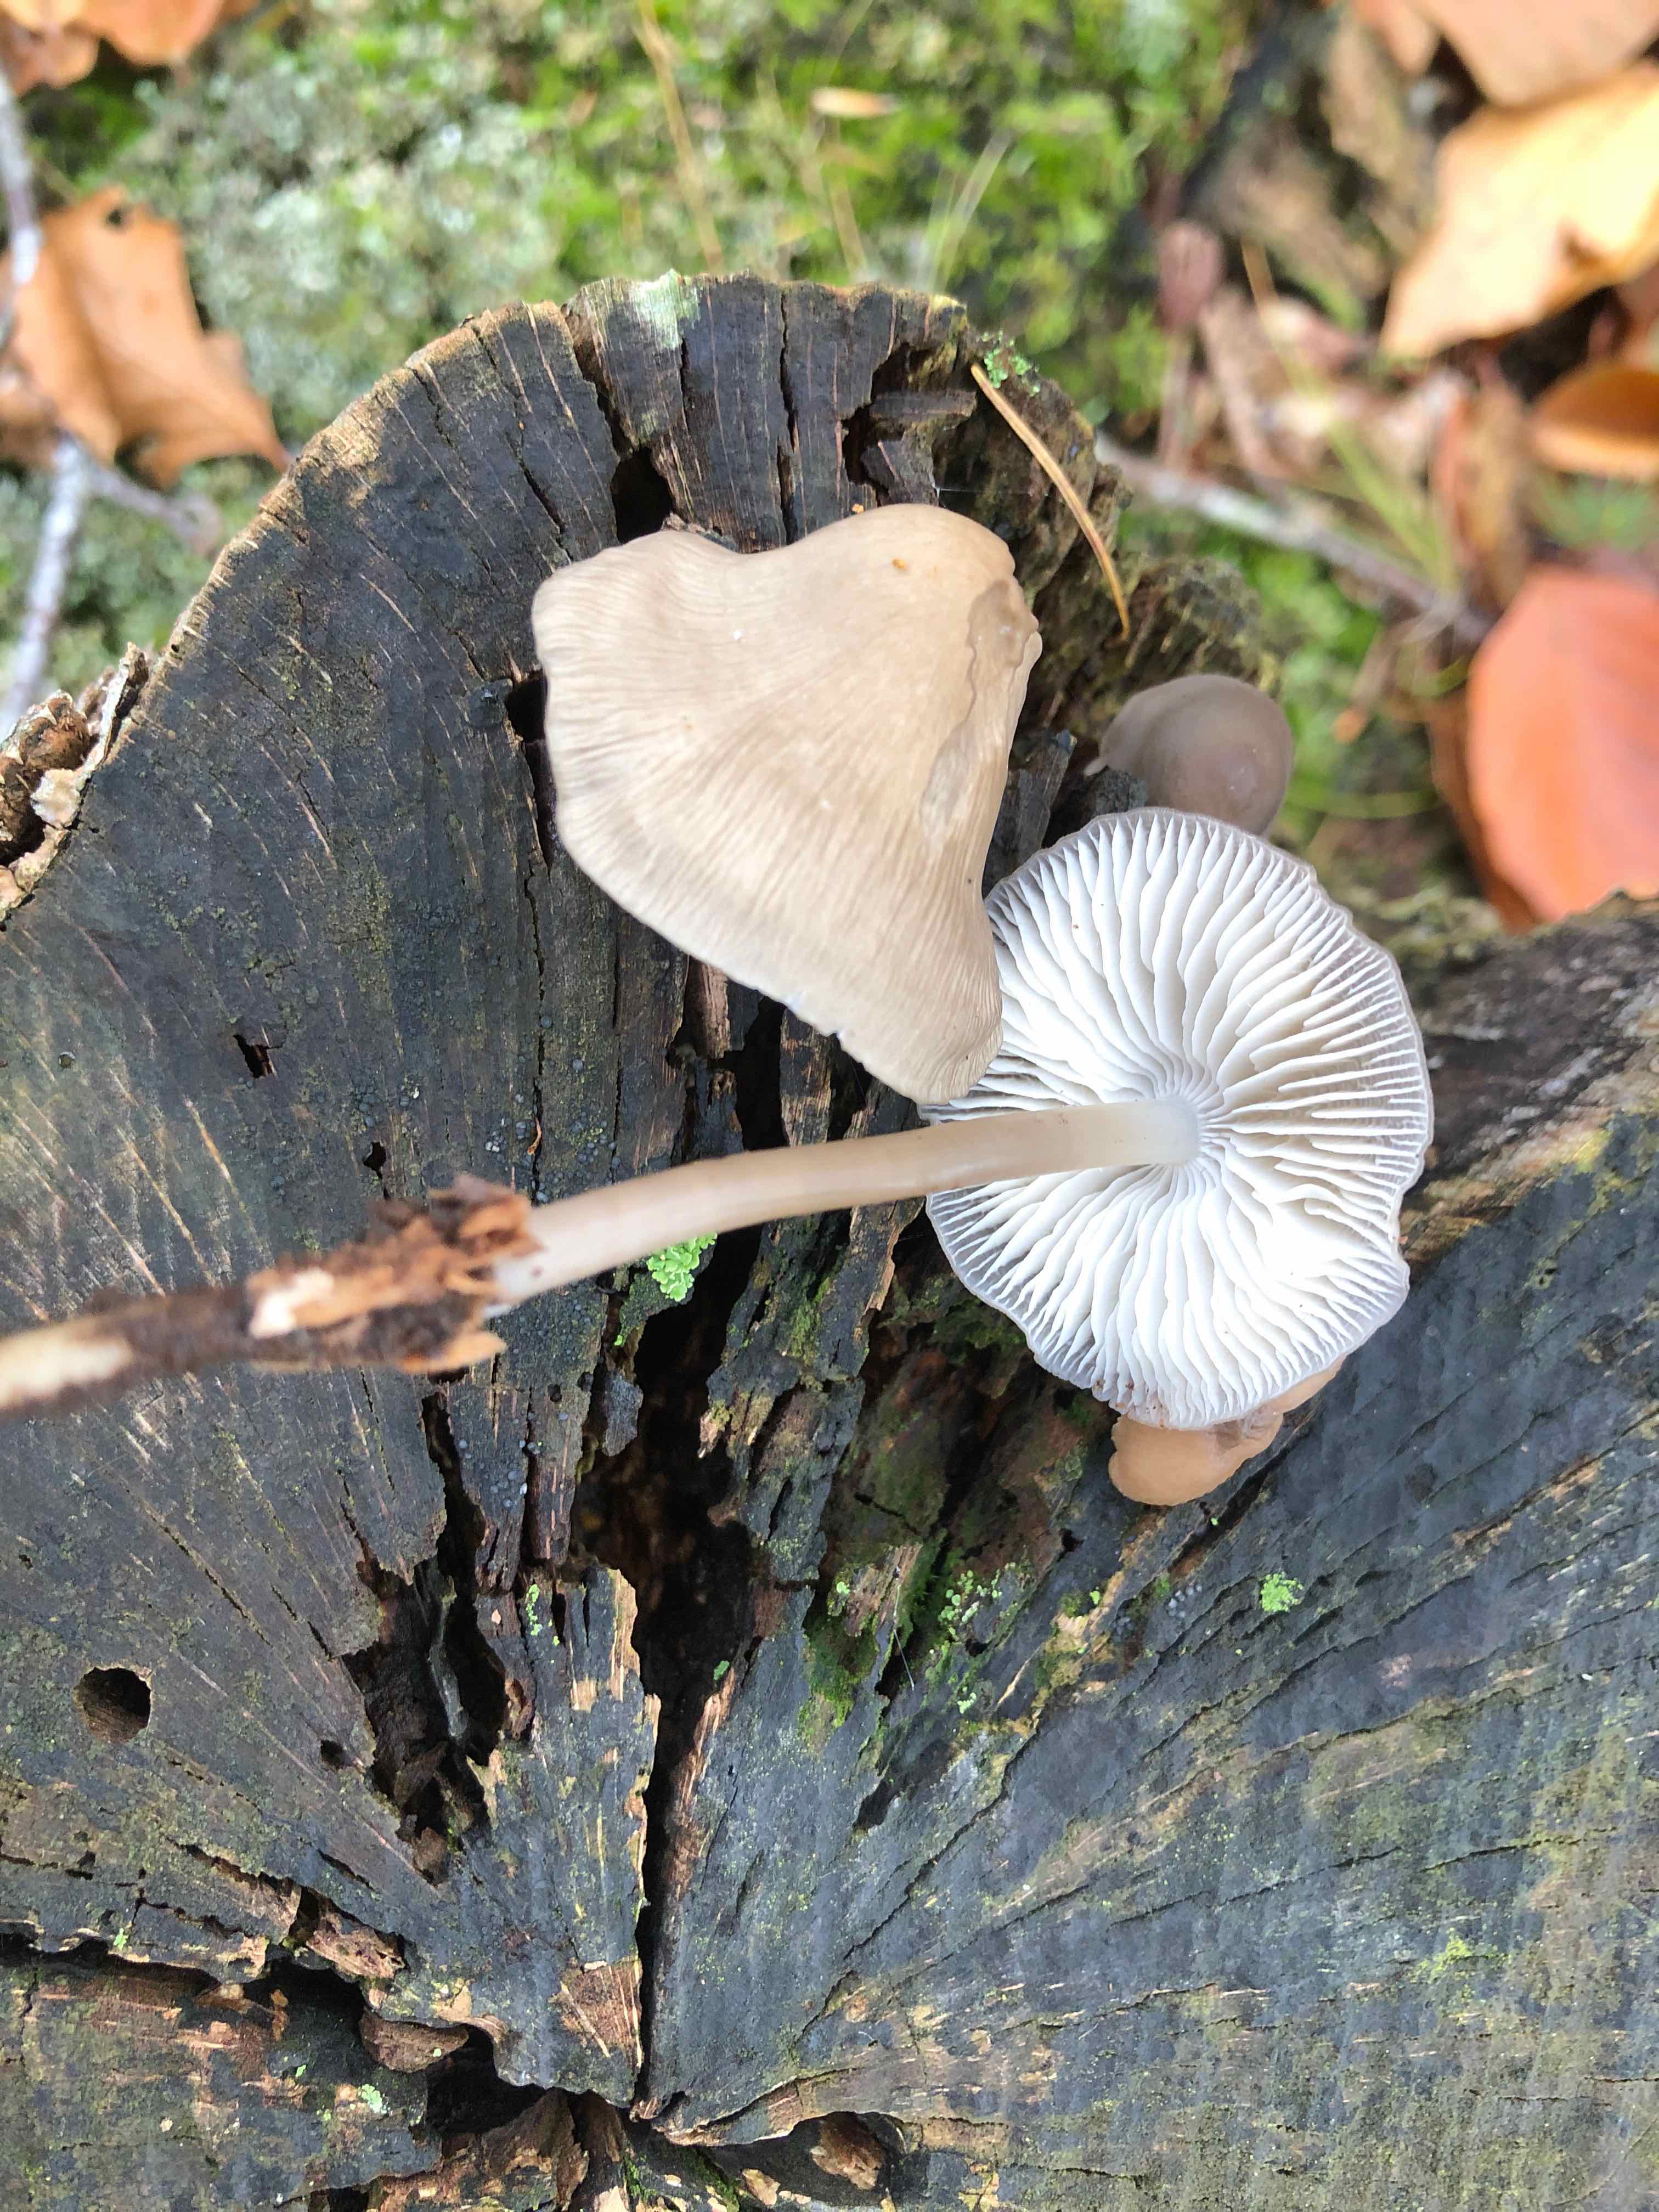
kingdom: Fungi
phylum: Basidiomycota
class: Agaricomycetes
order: Agaricales
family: Mycenaceae
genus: Mycena
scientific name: Mycena galericulata
